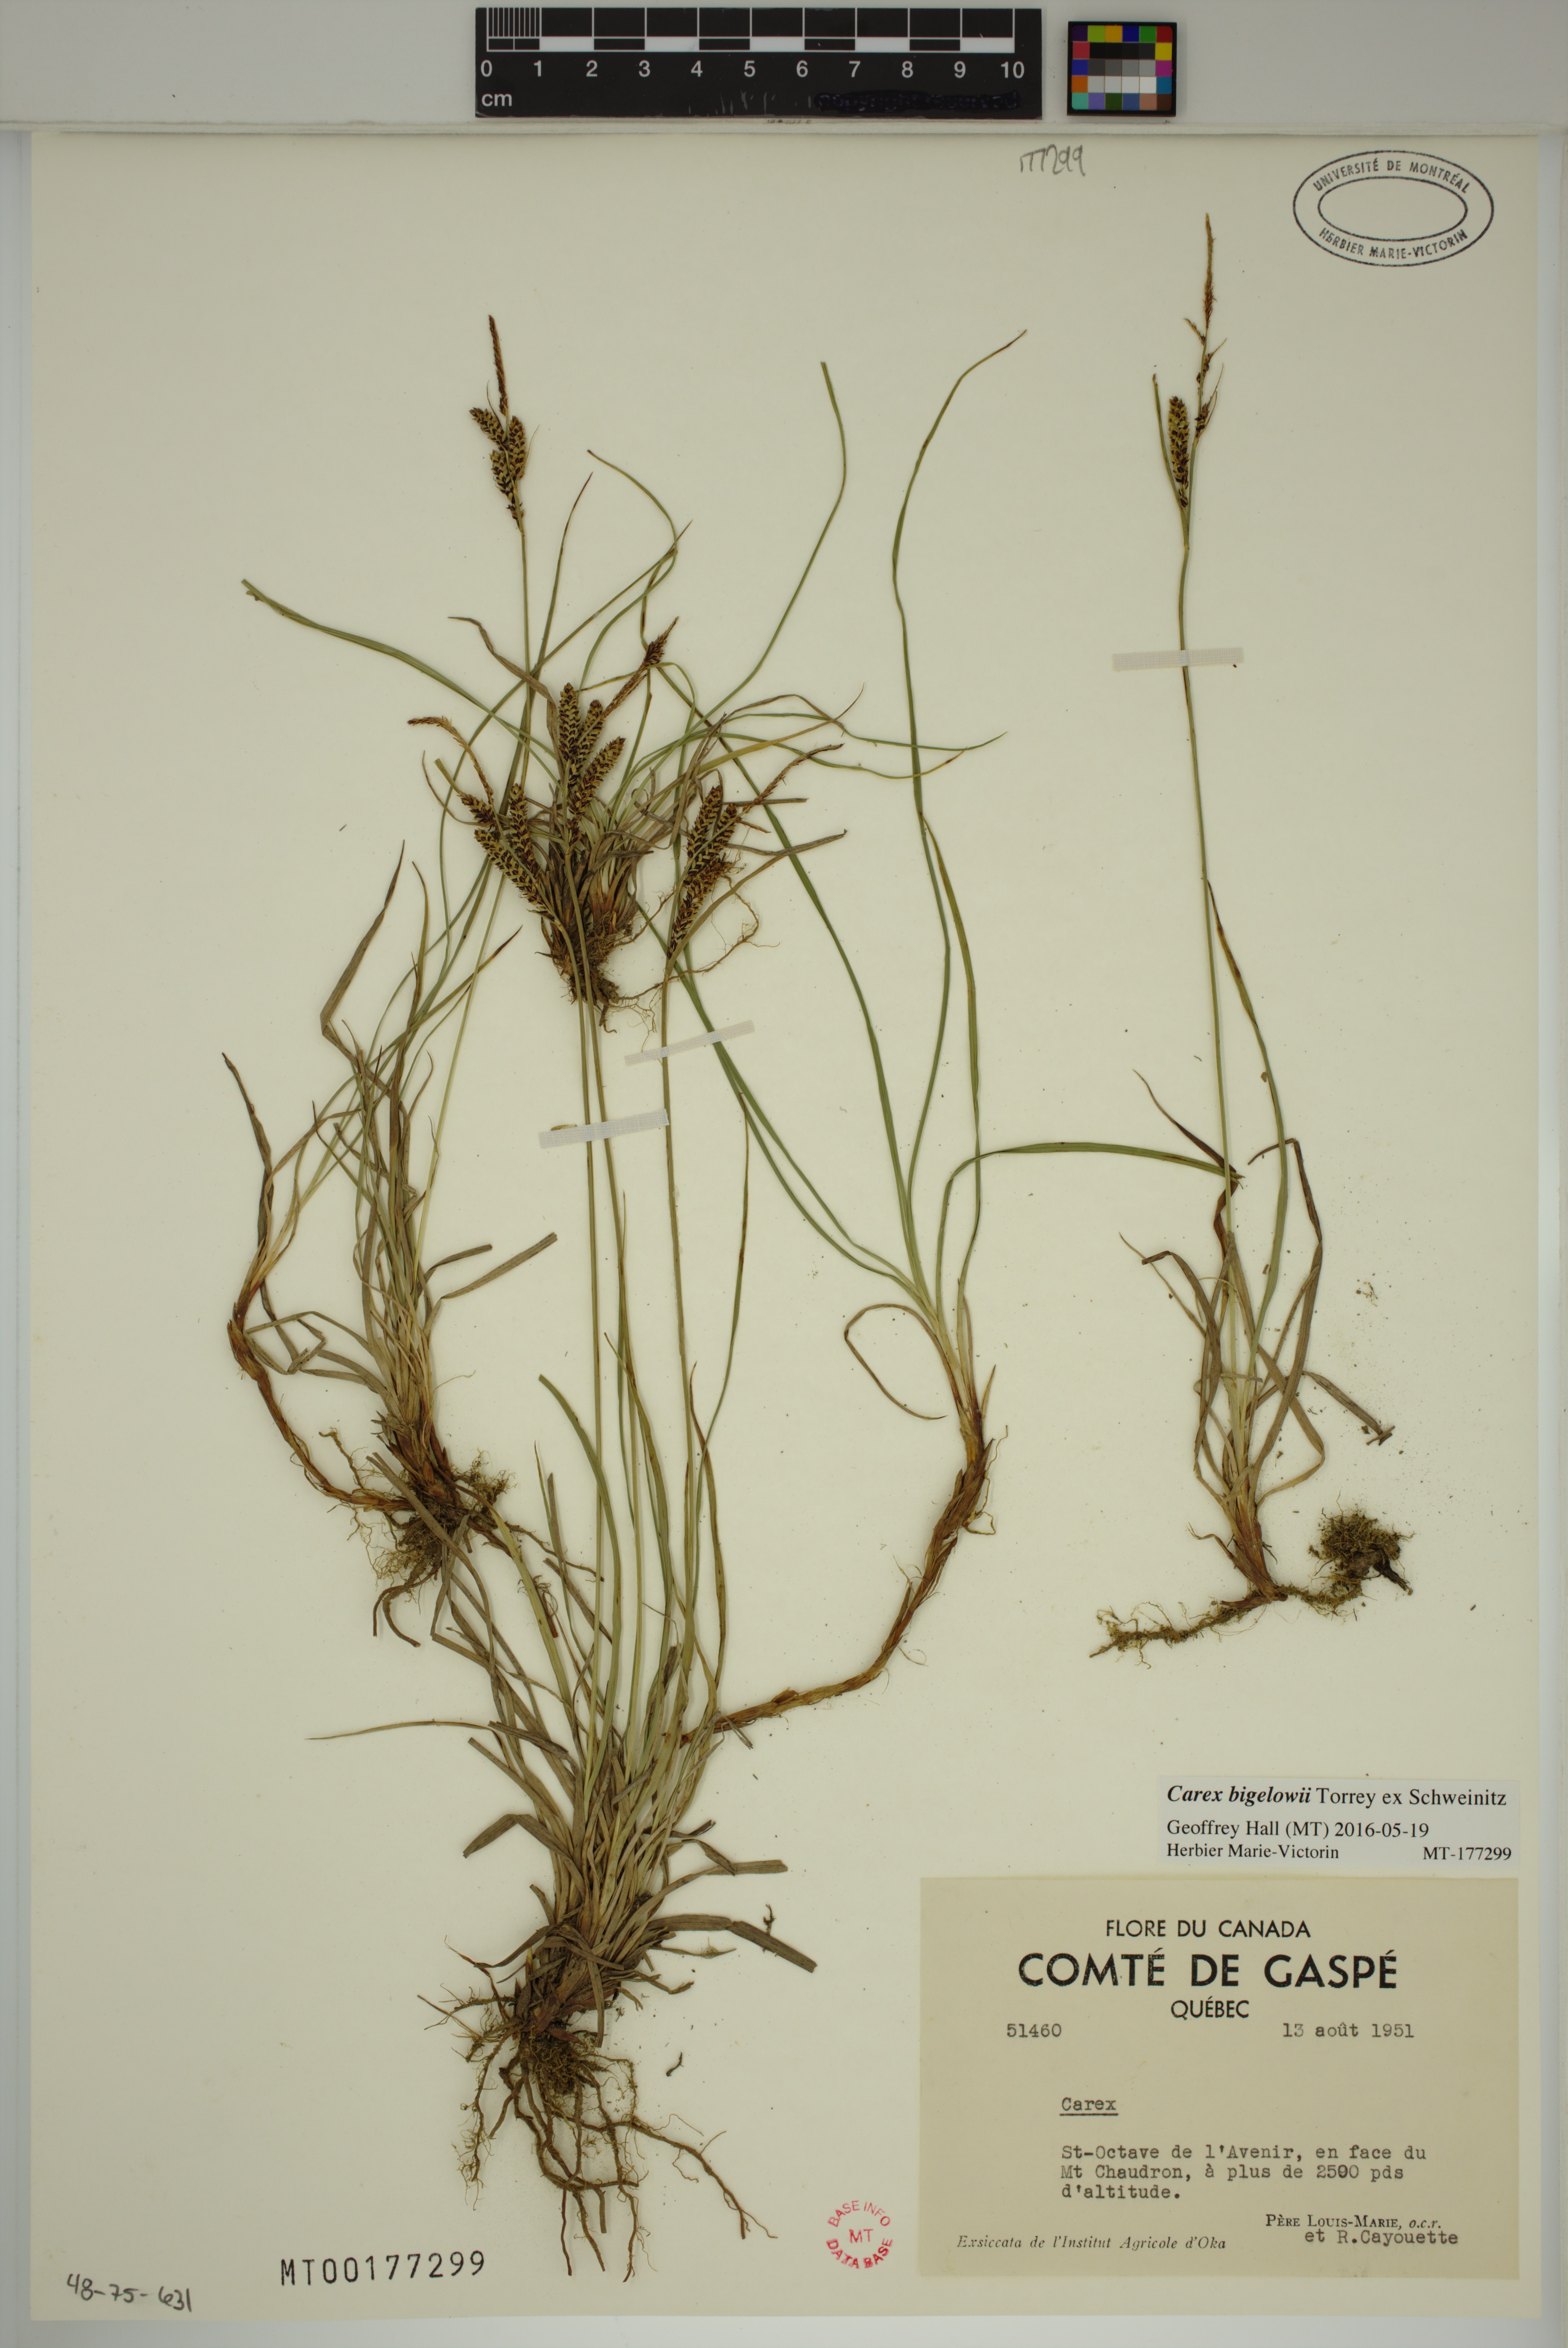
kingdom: Plantae
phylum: Tracheophyta
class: Liliopsida
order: Poales
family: Cyperaceae
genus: Carex
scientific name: Carex bigelowii
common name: Stiff sedge
